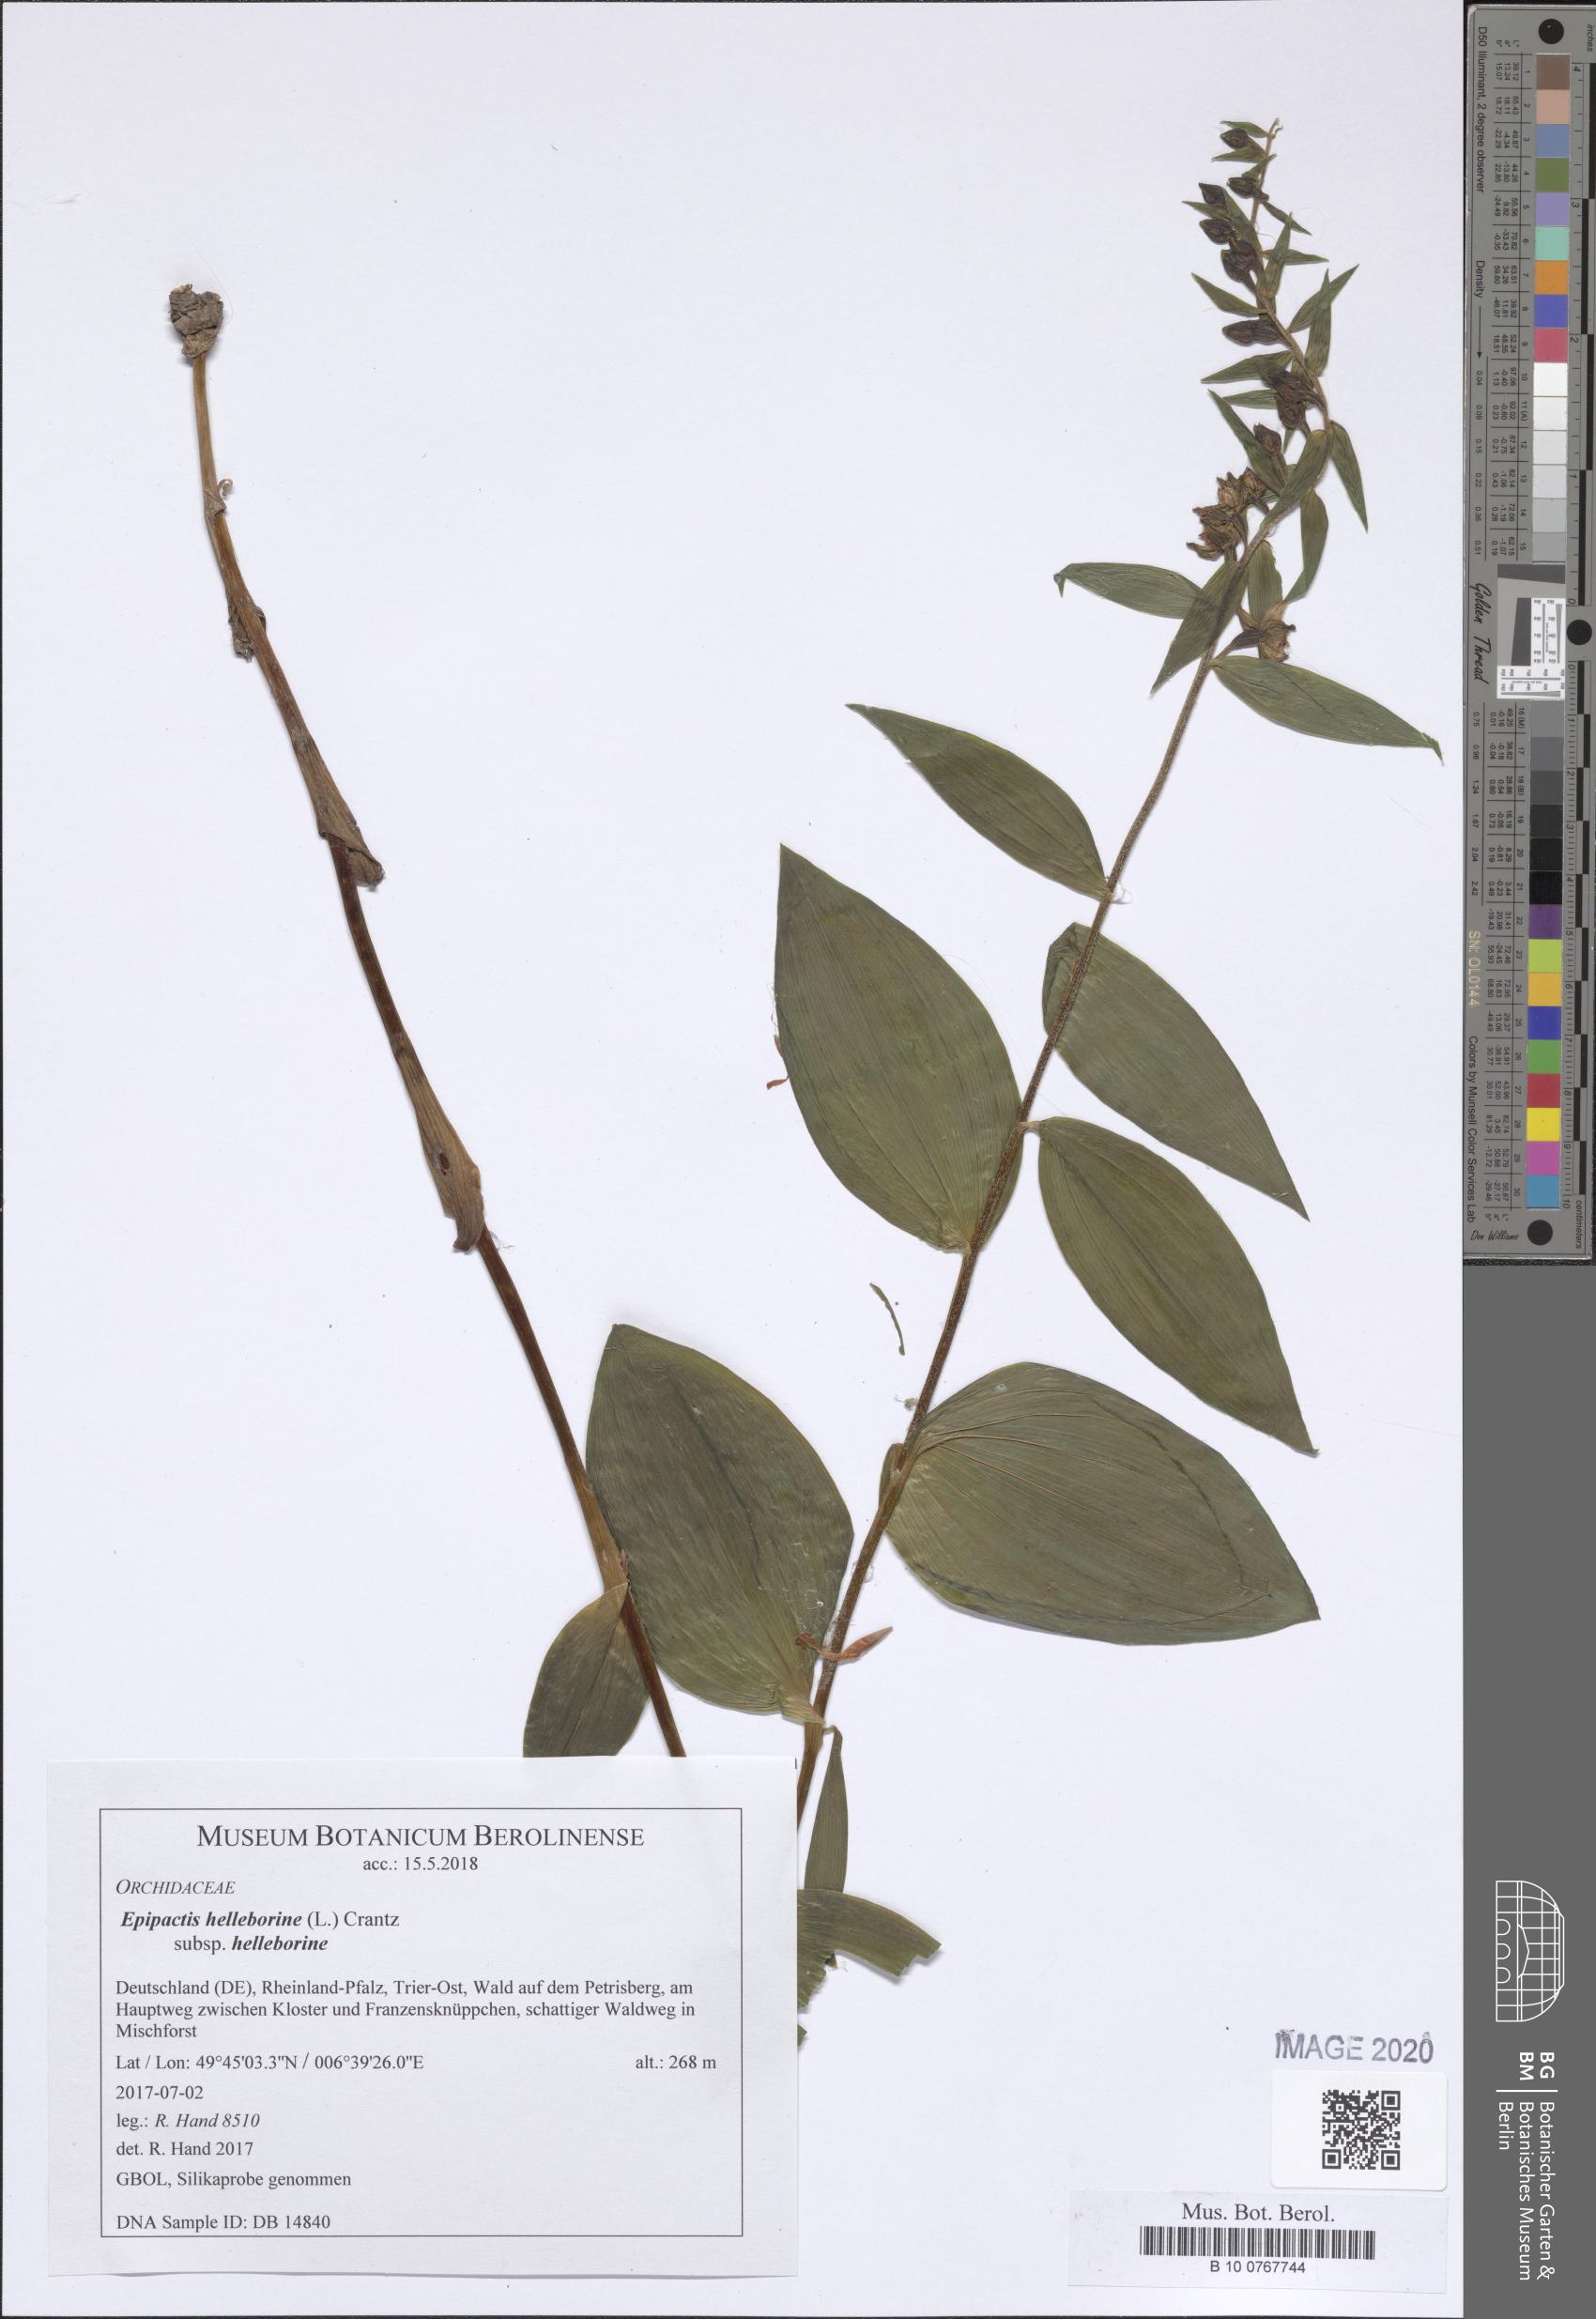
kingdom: Plantae
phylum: Tracheophyta
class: Liliopsida
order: Asparagales
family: Orchidaceae
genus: Epipactis
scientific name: Epipactis helleborine
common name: Broad-leaved helleborine
